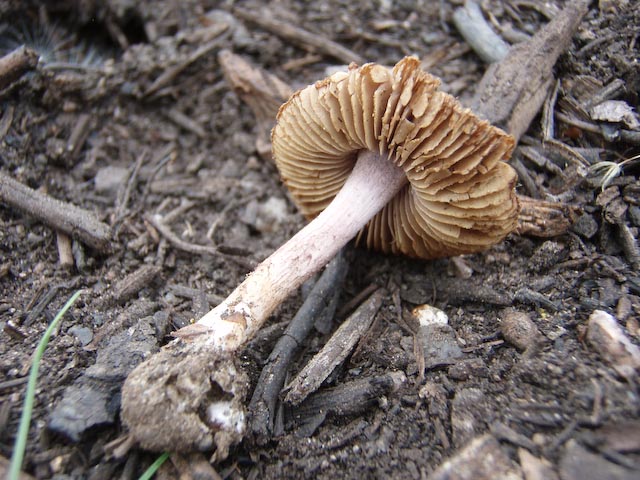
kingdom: Fungi
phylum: Basidiomycota
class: Agaricomycetes
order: Agaricales
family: Inocybaceae
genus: Inocybe
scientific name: Inocybe griseolilacina
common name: lillagrå trævlhat
